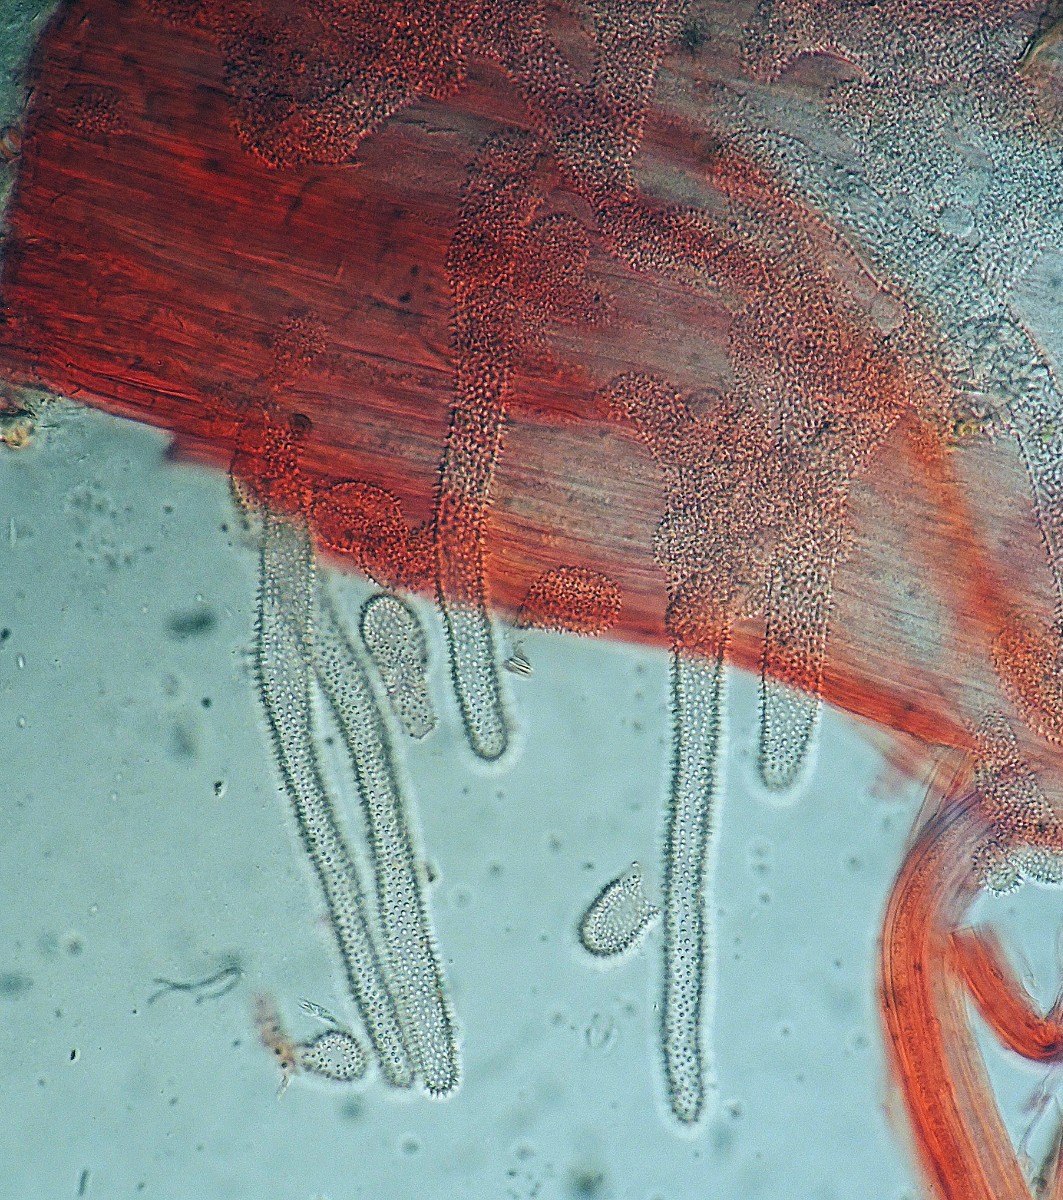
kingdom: Fungi
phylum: Basidiomycota
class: Agaricomycetes
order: Agaricales
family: Mycenaceae
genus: Mycena
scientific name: Mycena corynephora
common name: dunet huesvamp
